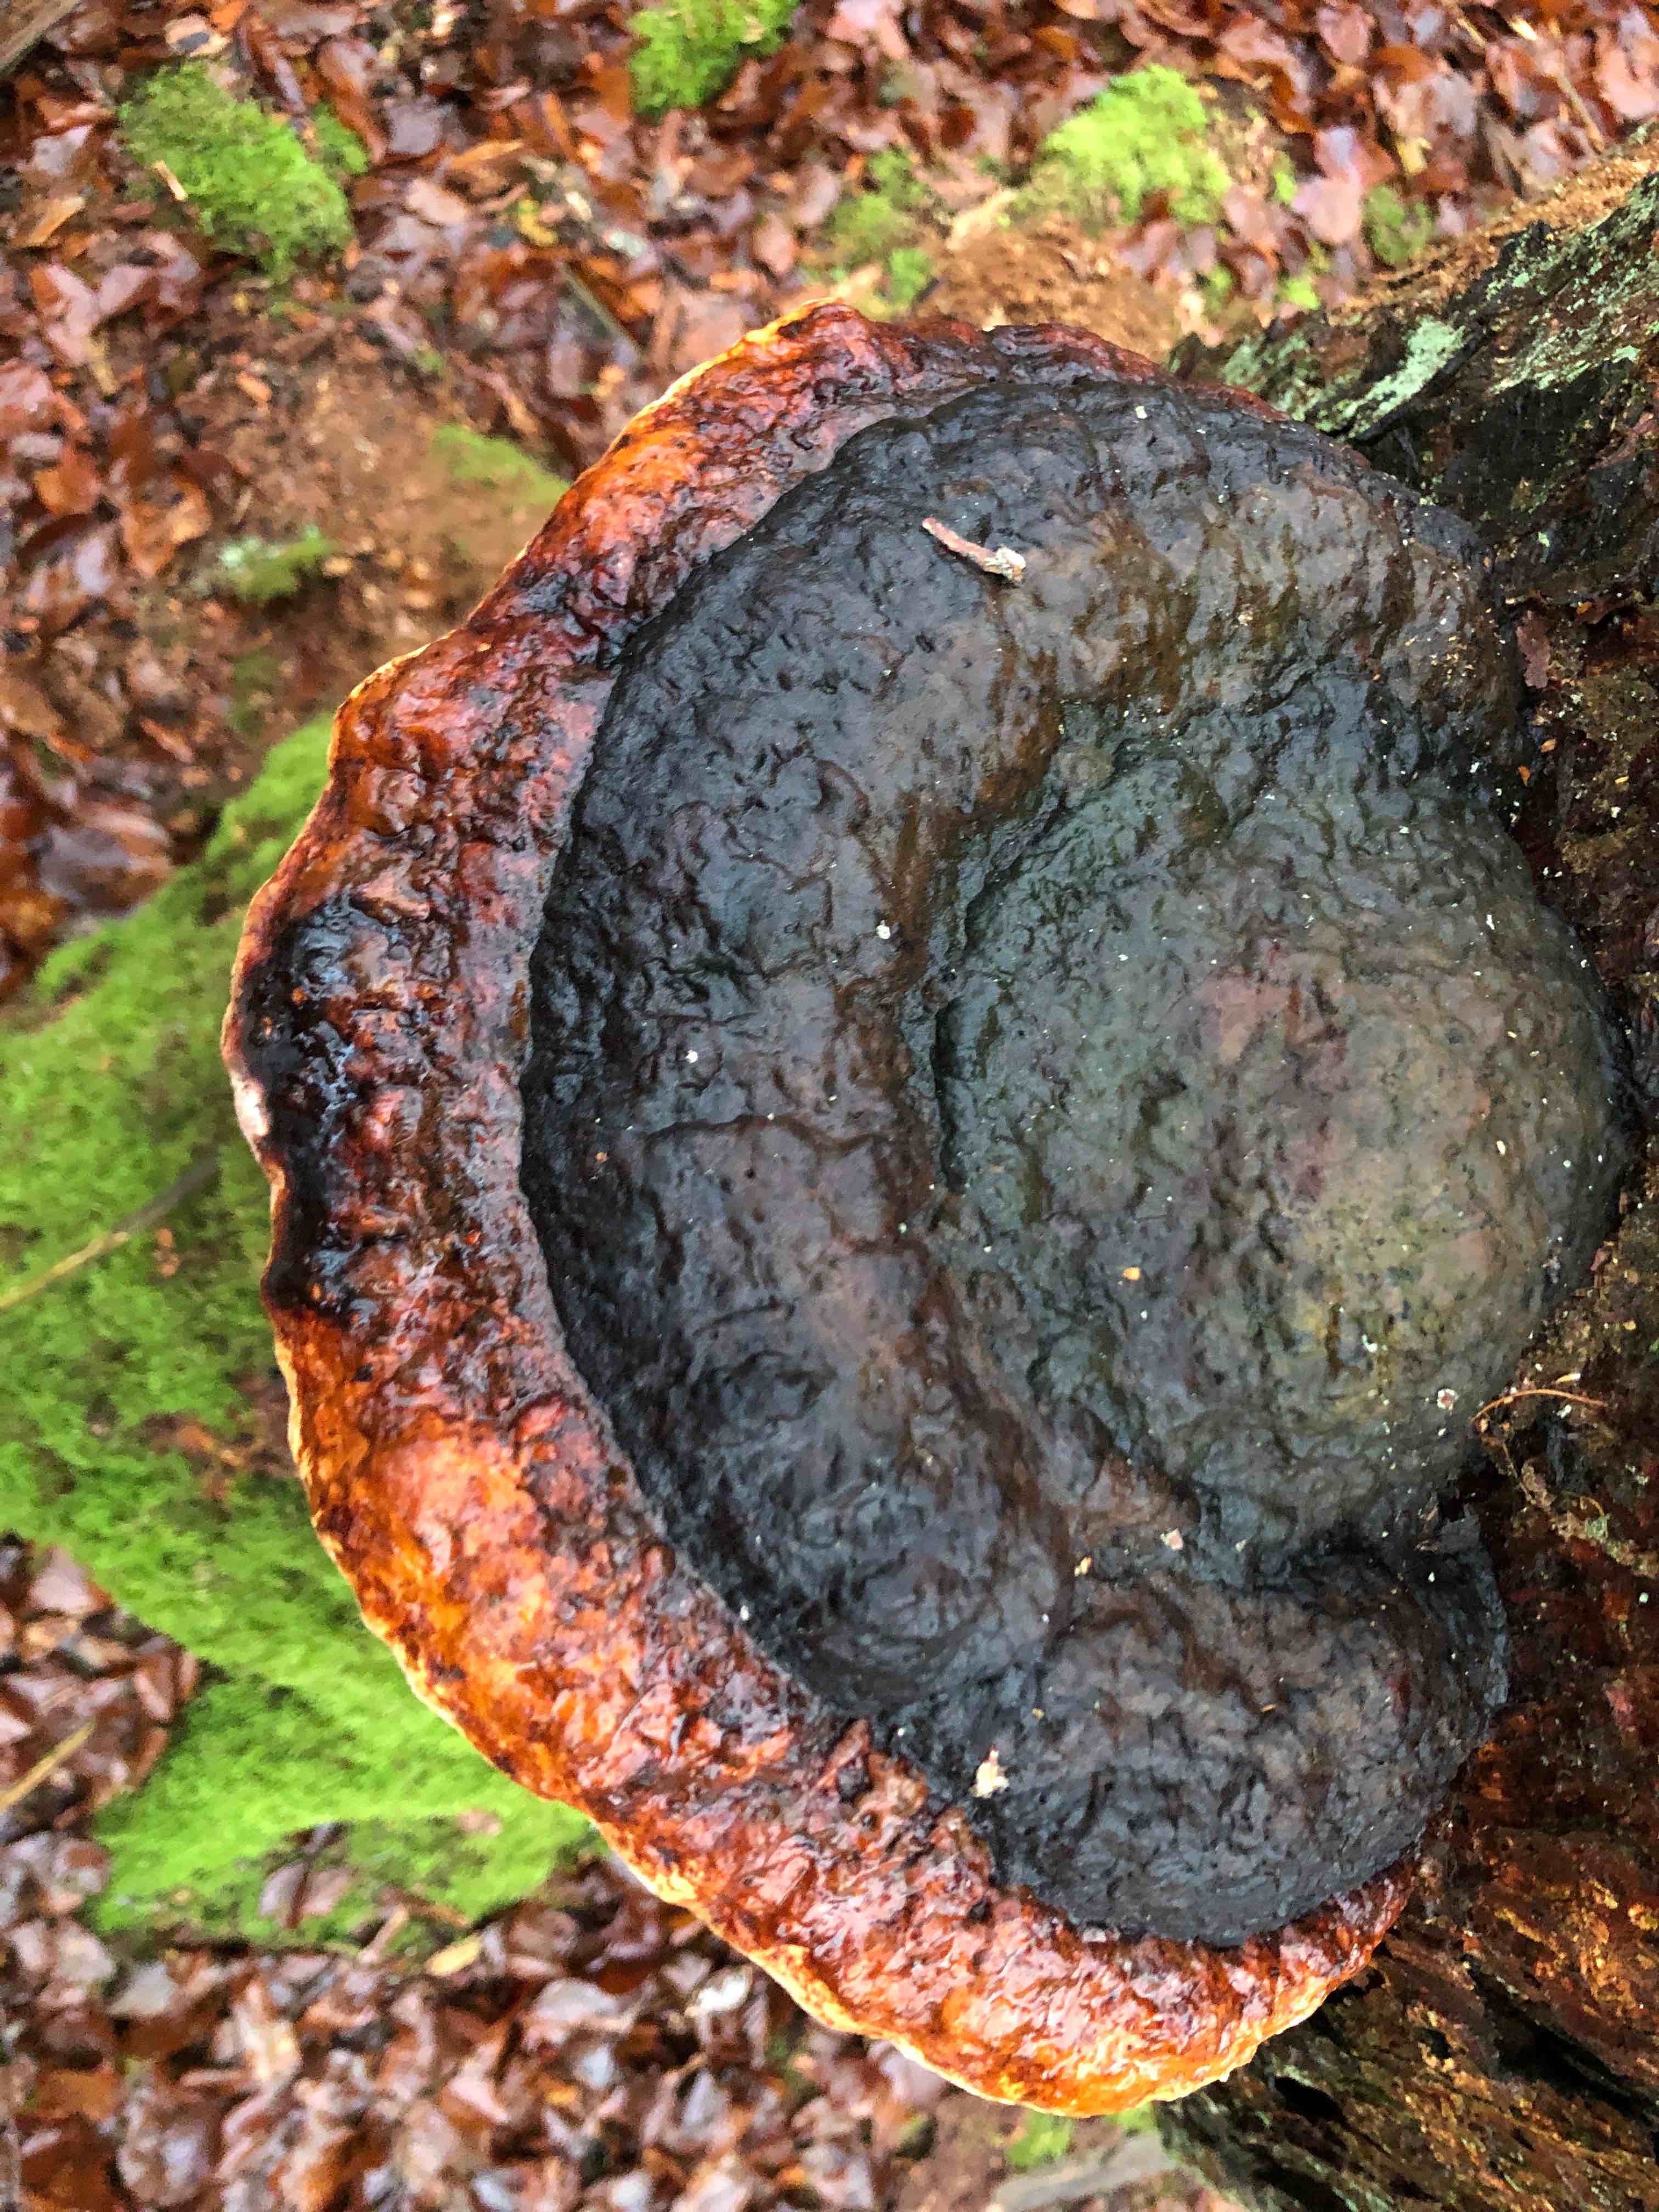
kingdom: Fungi
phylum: Basidiomycota
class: Agaricomycetes
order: Polyporales
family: Fomitopsidaceae
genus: Fomitopsis
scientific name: Fomitopsis pinicola
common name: randbæltet hovporesvamp
